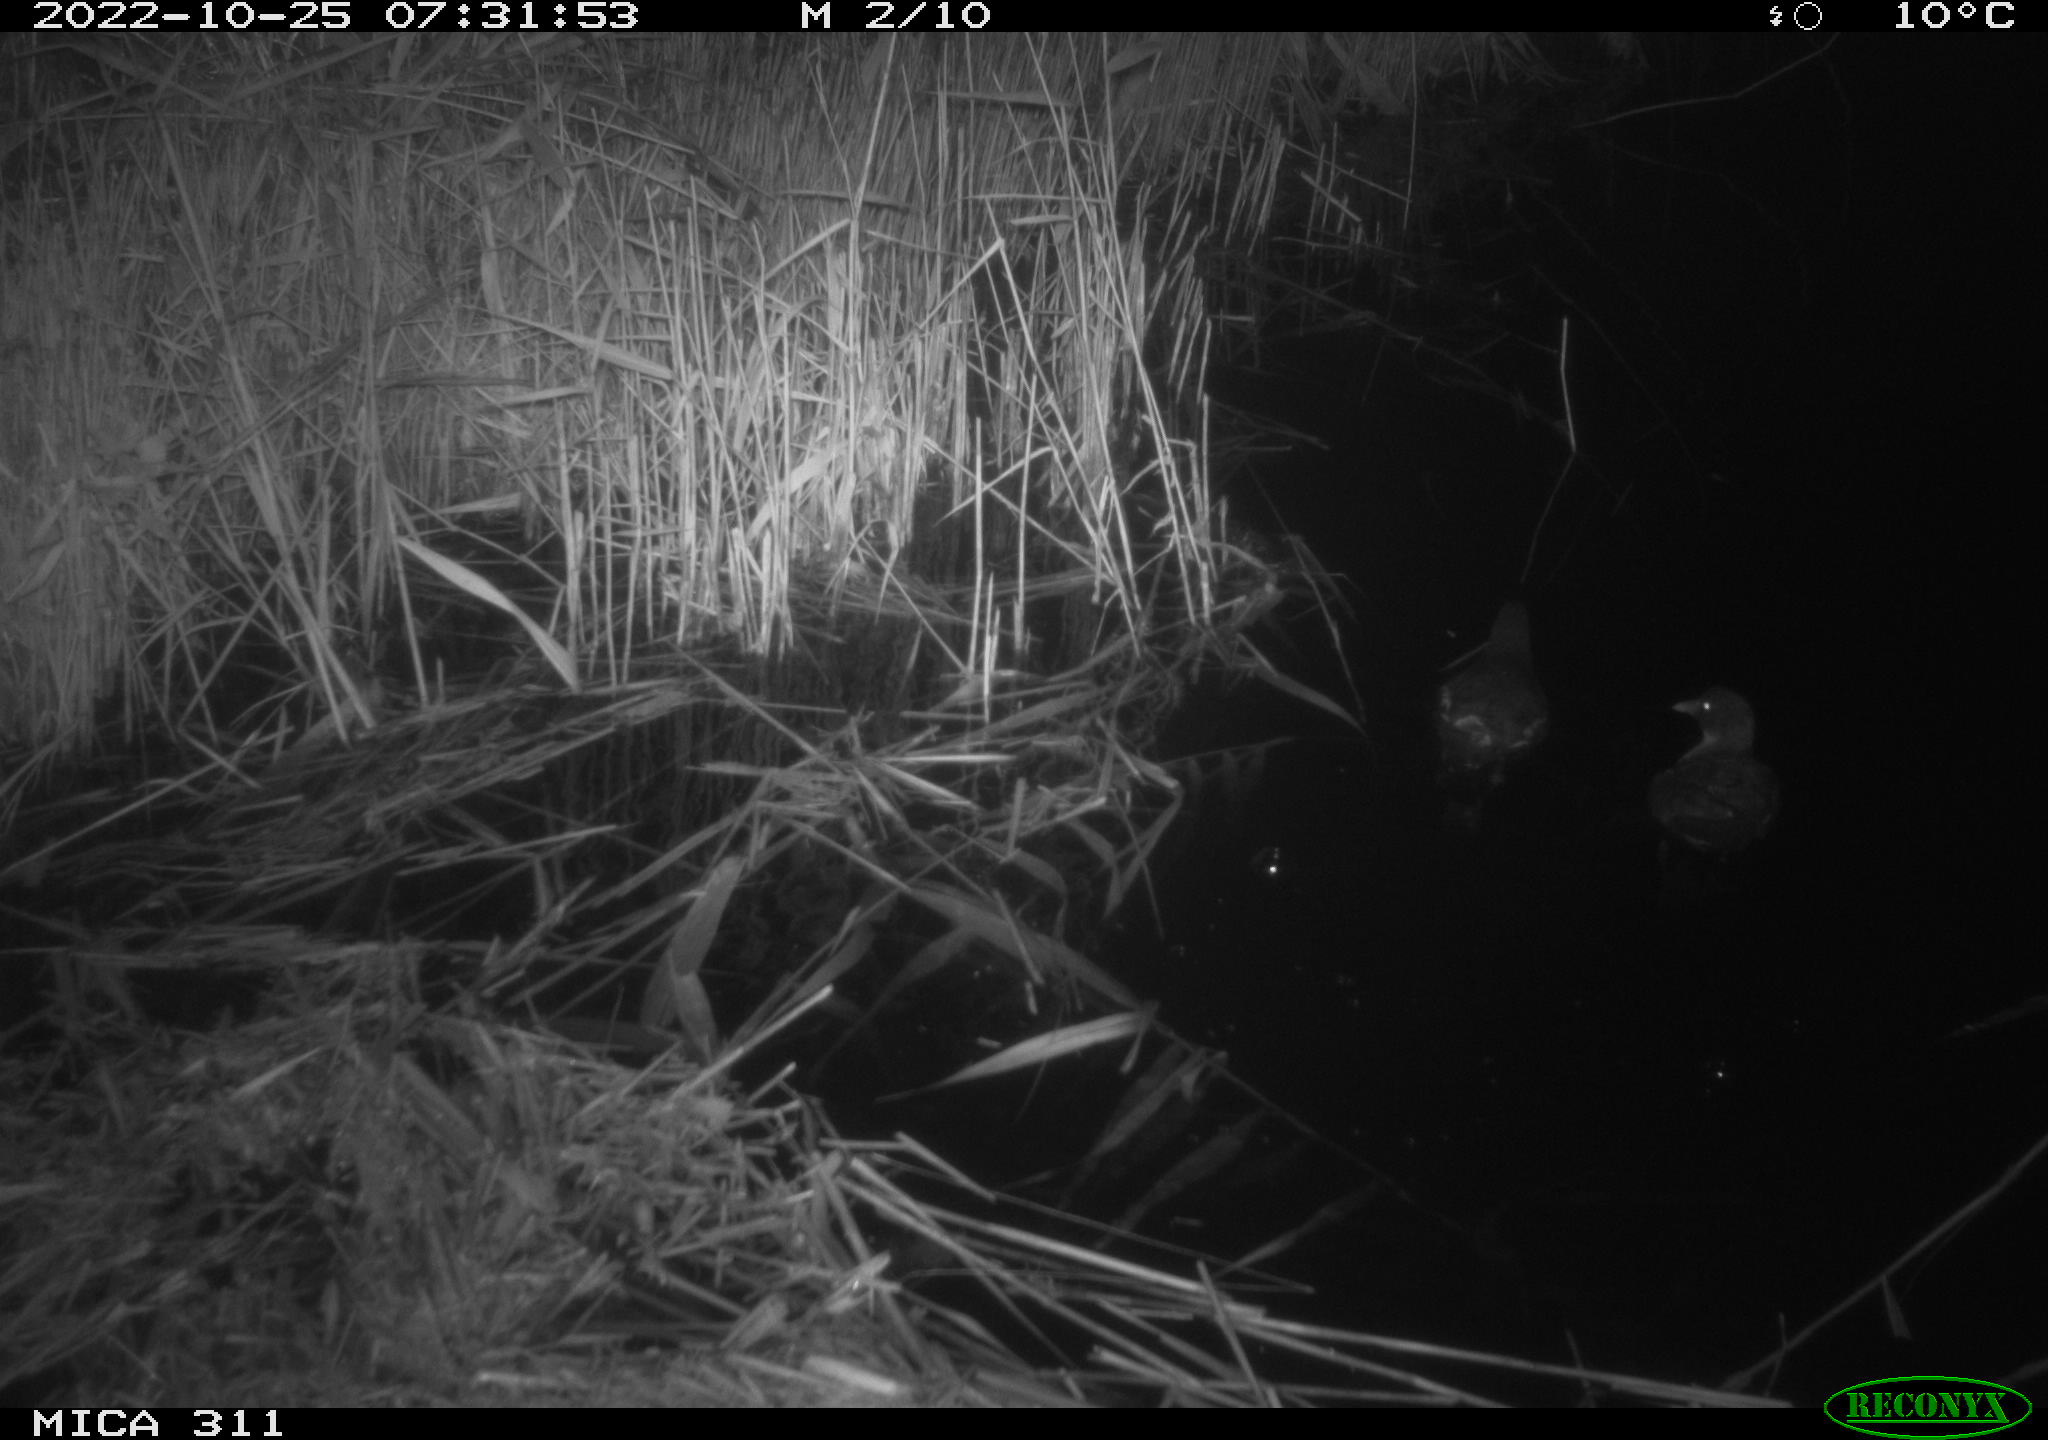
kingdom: Animalia
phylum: Chordata
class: Aves
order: Gruiformes
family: Rallidae
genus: Gallinula
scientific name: Gallinula chloropus
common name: Common moorhen
